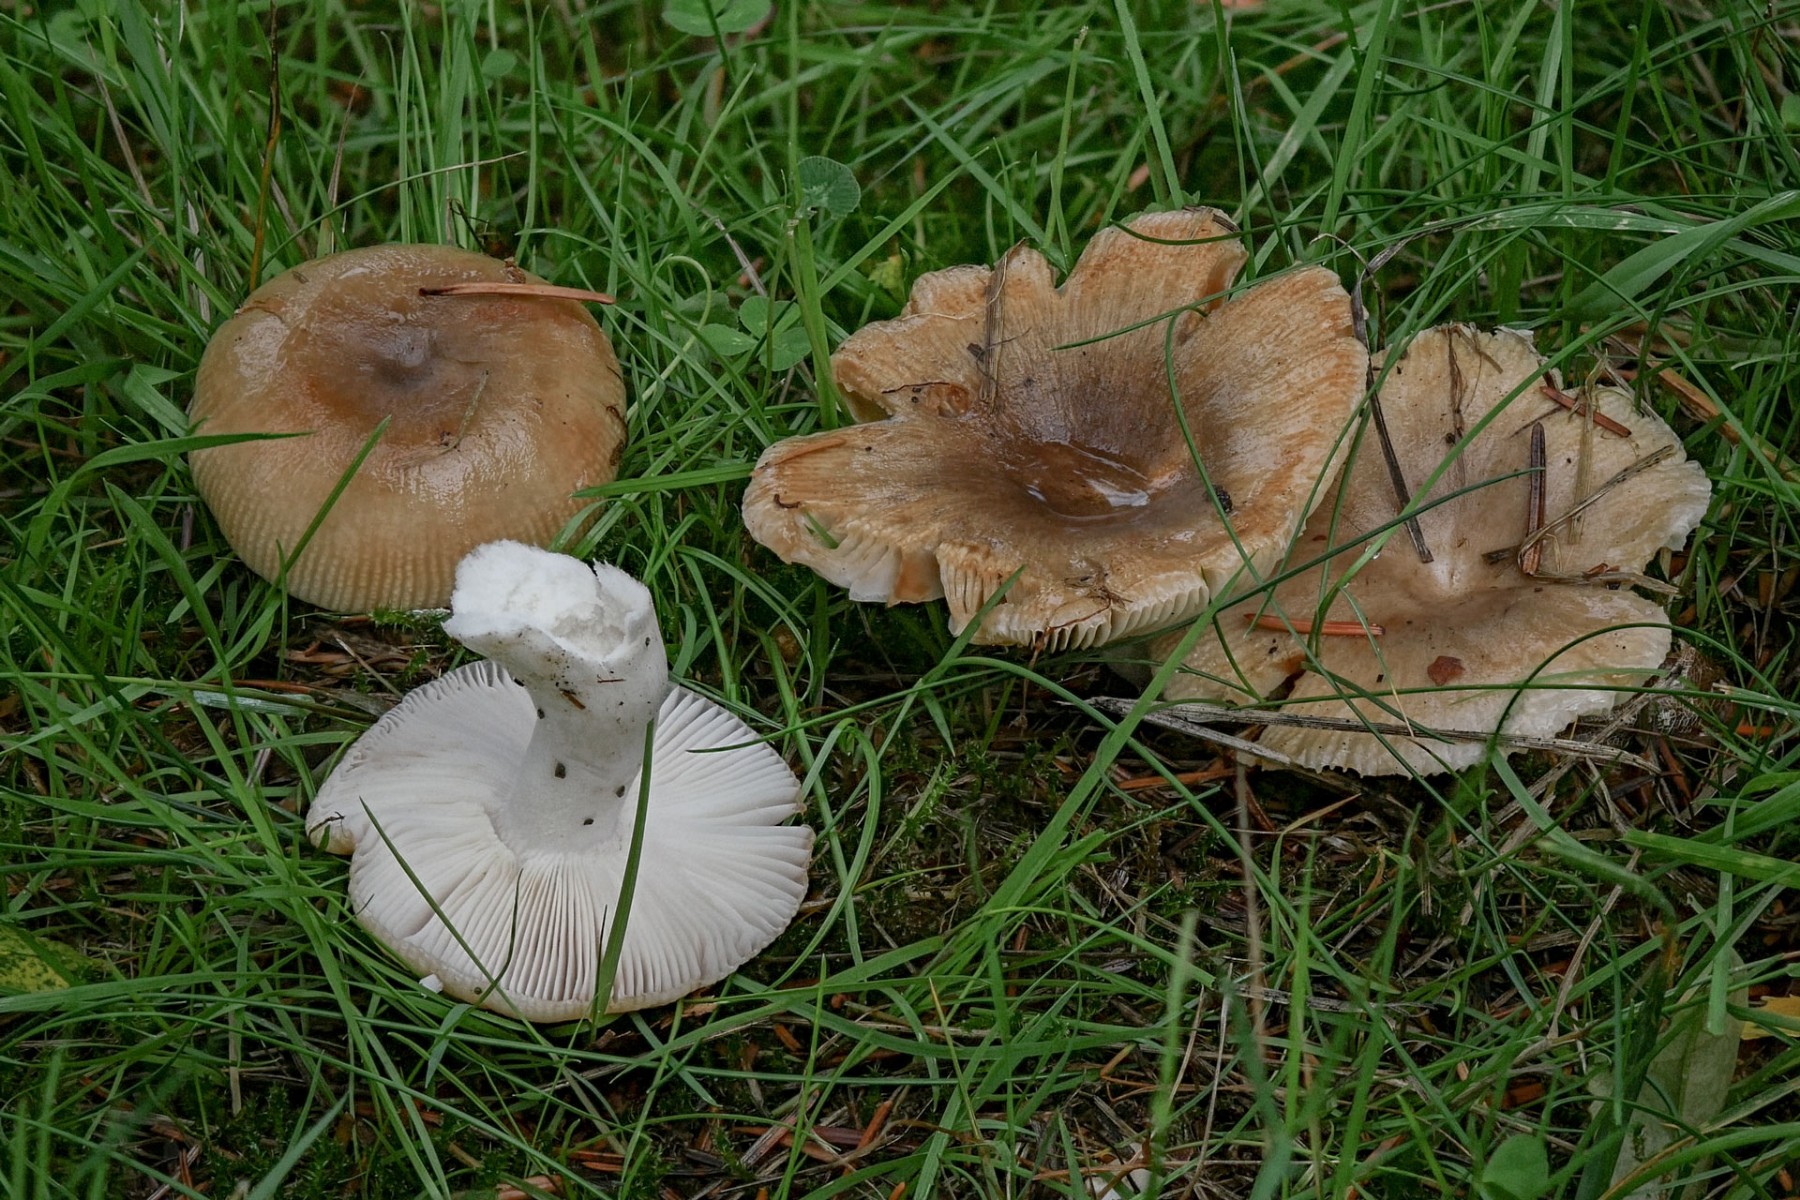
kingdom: Fungi
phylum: Basidiomycota
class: Agaricomycetes
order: Russulales
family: Russulaceae
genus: Russula
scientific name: Russula recondita
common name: mild kam-skørhat
